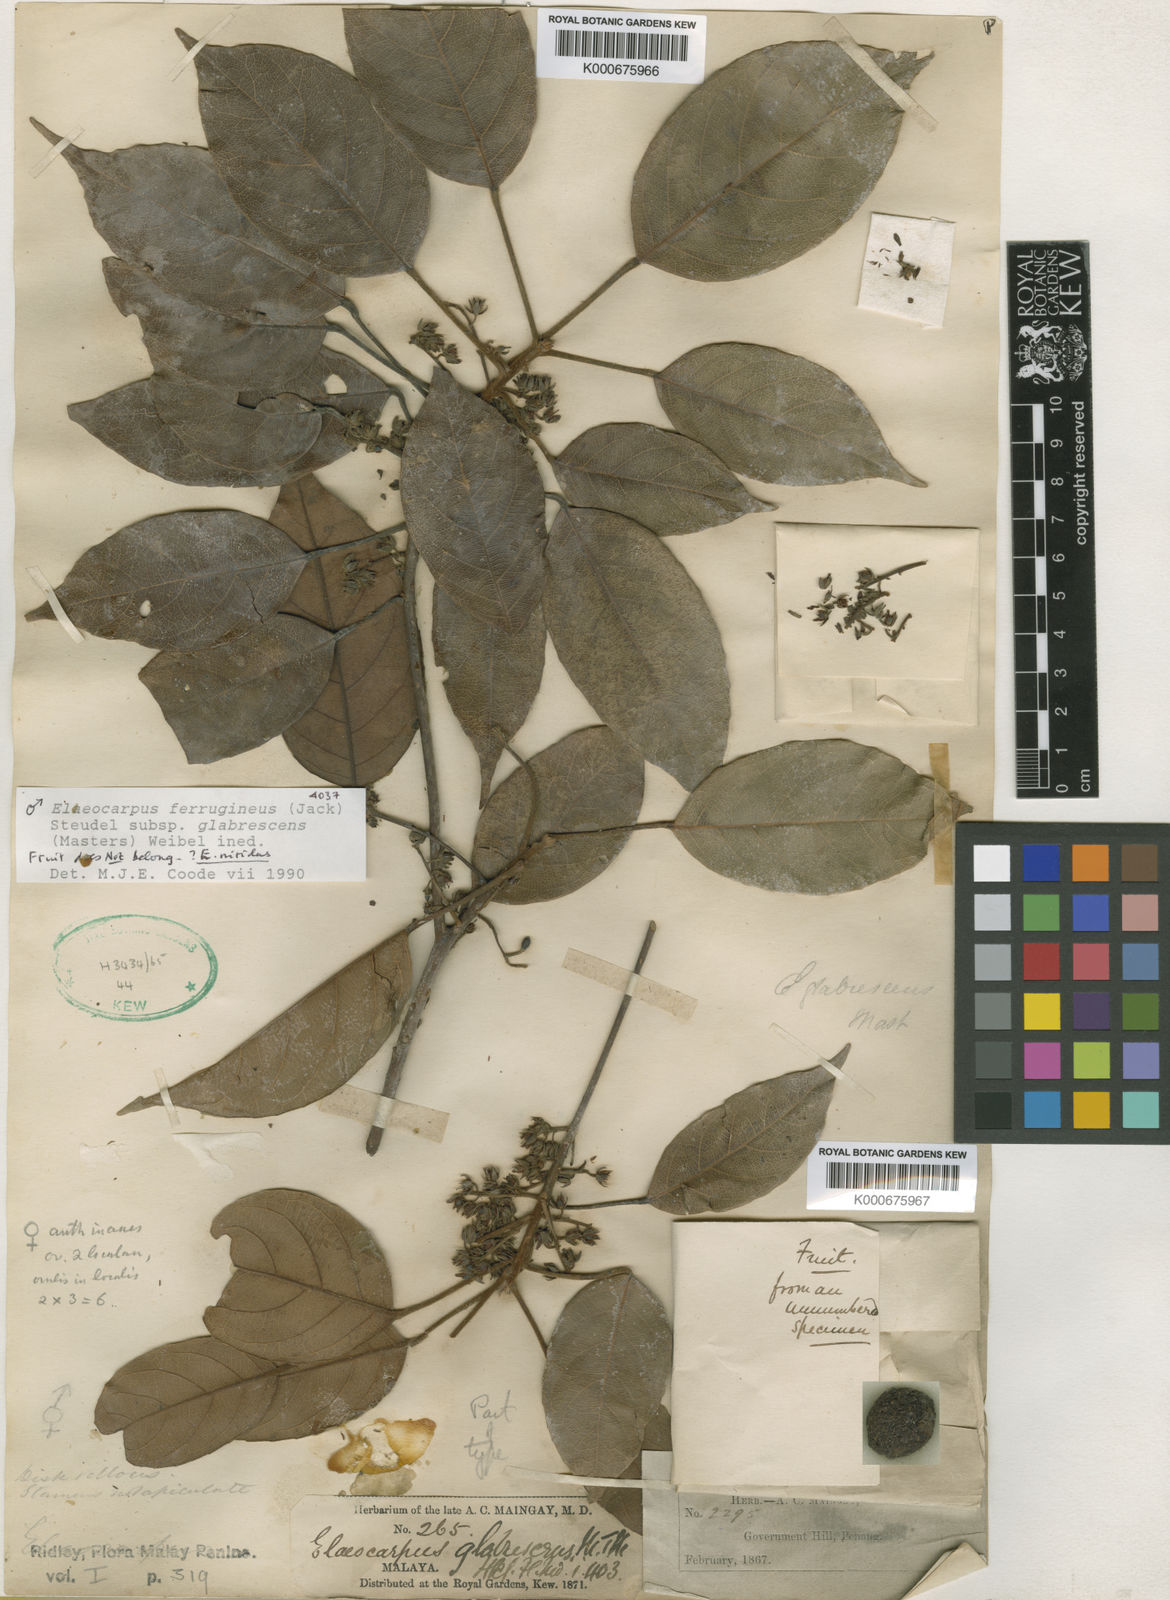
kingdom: Plantae
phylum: Tracheophyta
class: Magnoliopsida
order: Oxalidales
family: Elaeocarpaceae
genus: Elaeocarpus
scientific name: Elaeocarpus ferrugineus
